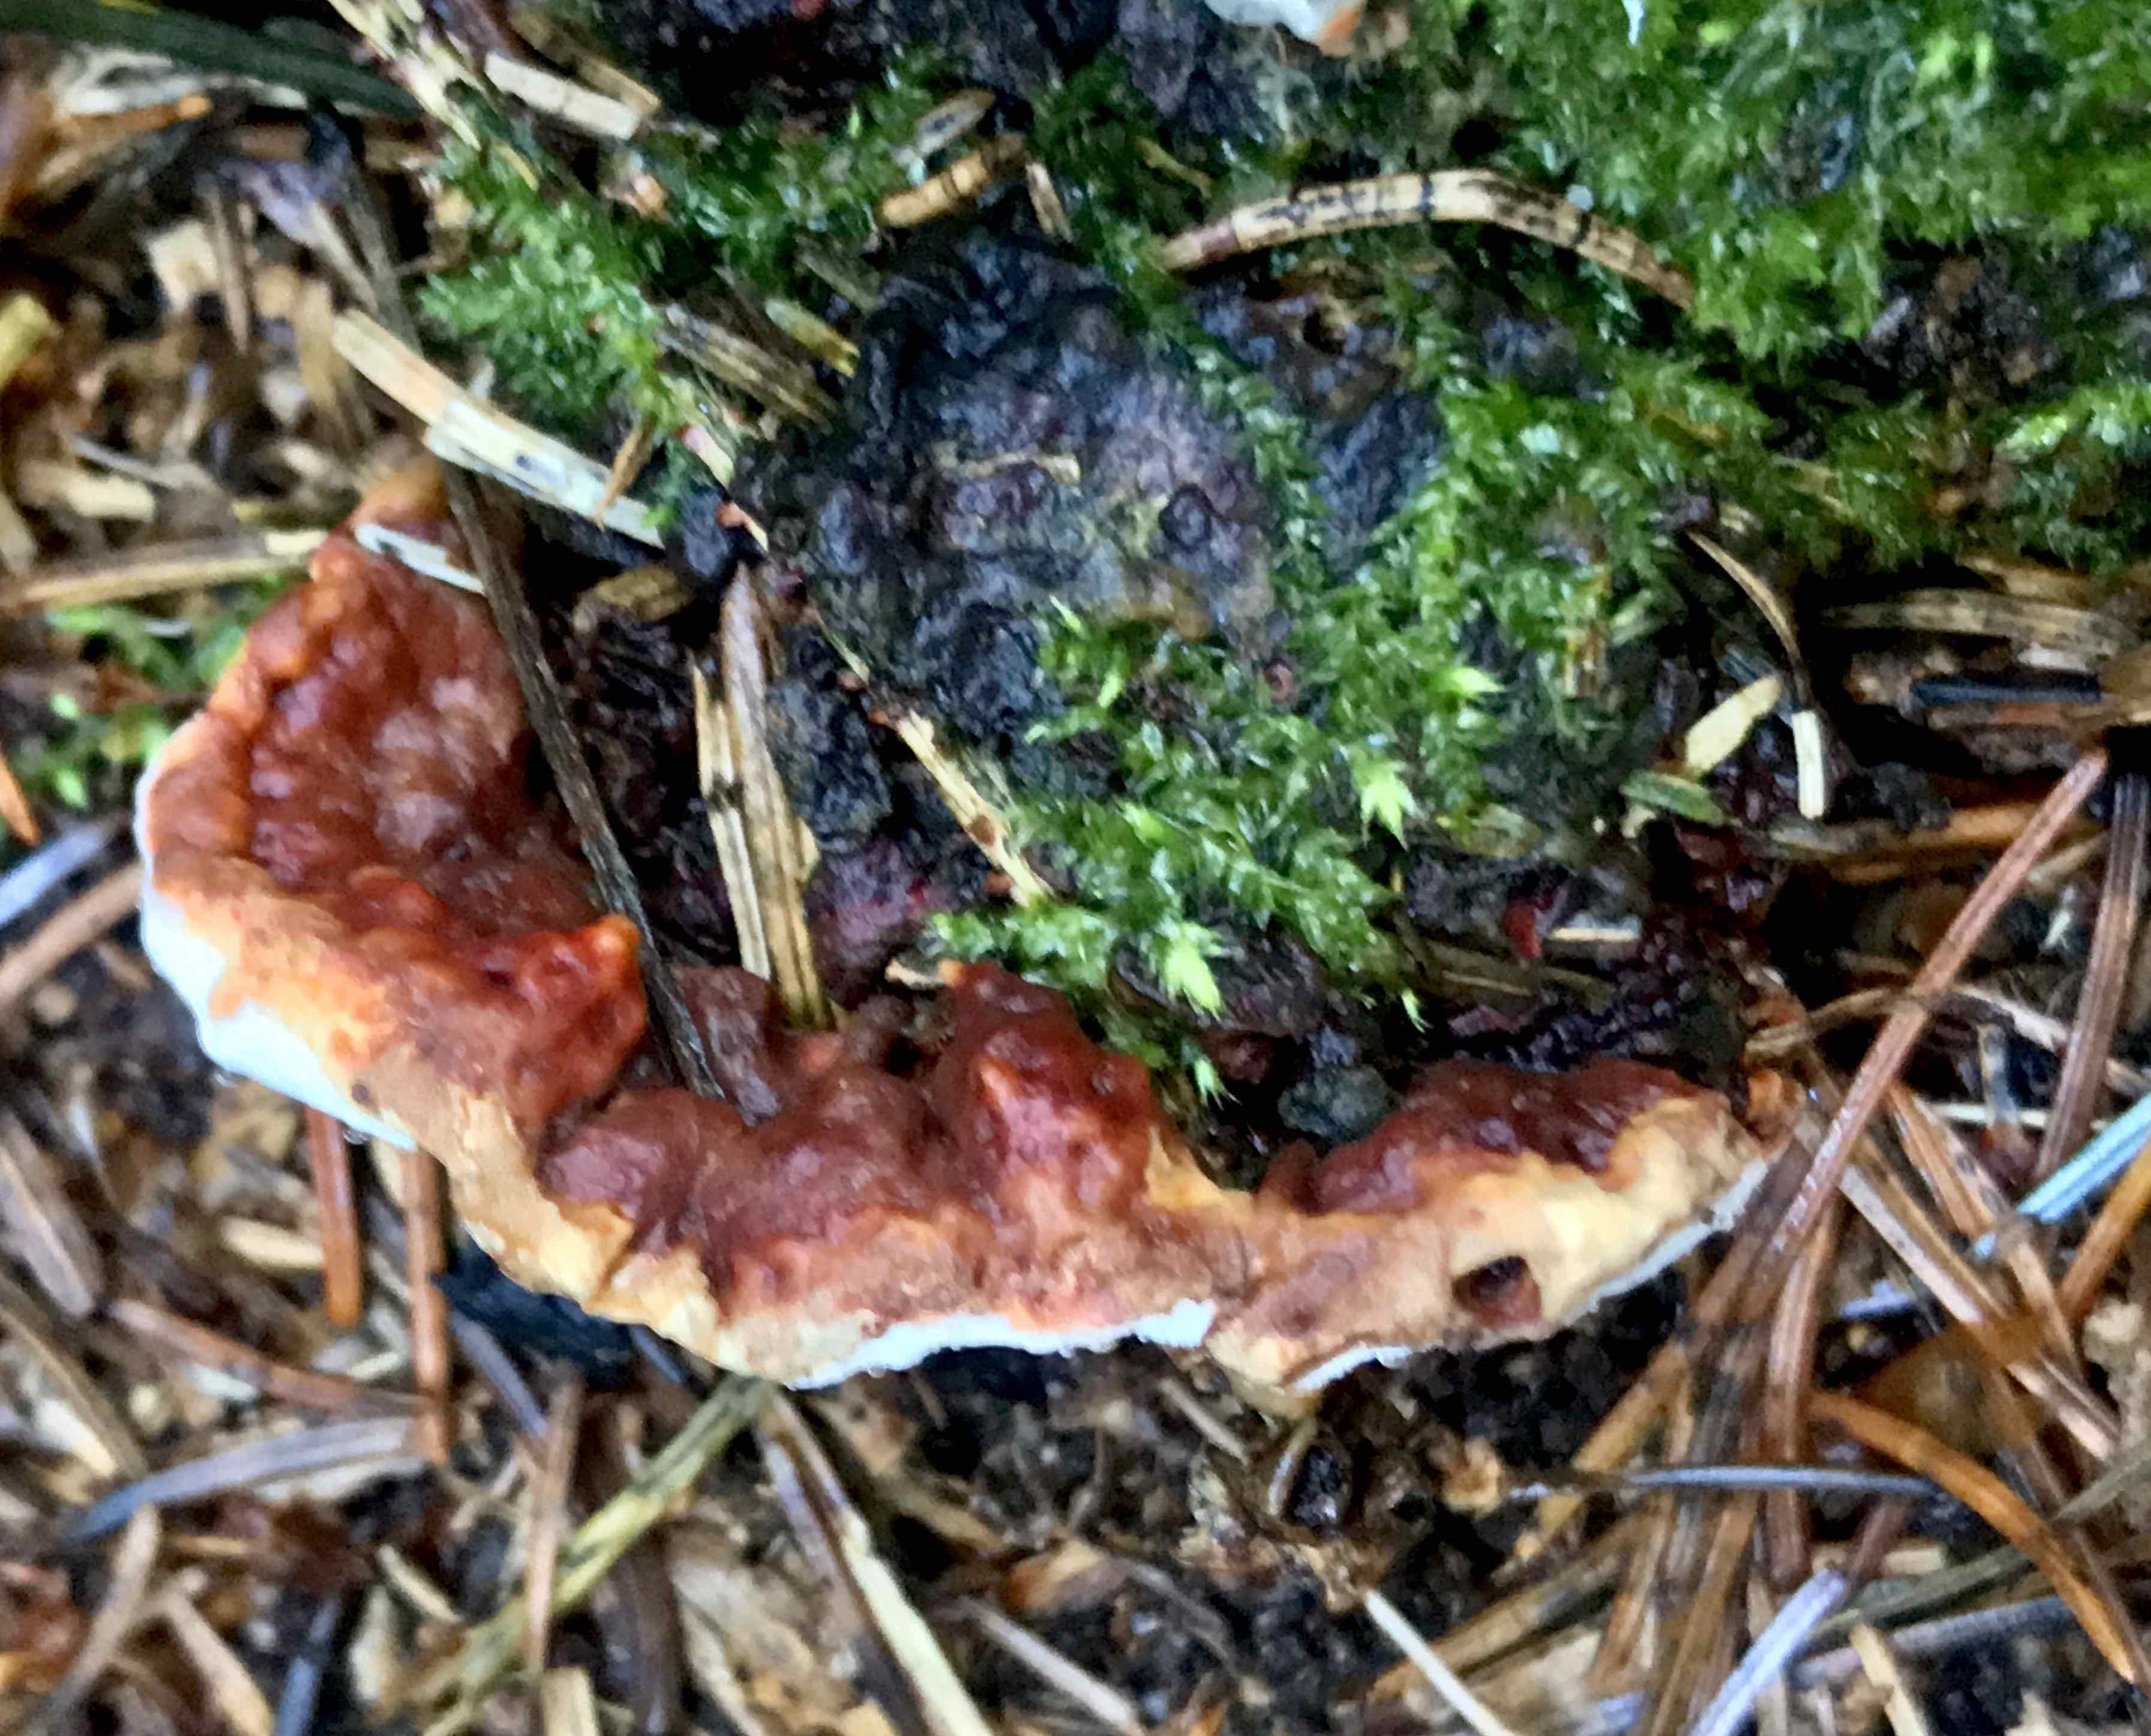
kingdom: Fungi
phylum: Basidiomycota
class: Agaricomycetes
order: Russulales
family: Bondarzewiaceae
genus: Heterobasidion
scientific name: Heterobasidion annosum
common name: almindelig rodfordærver
